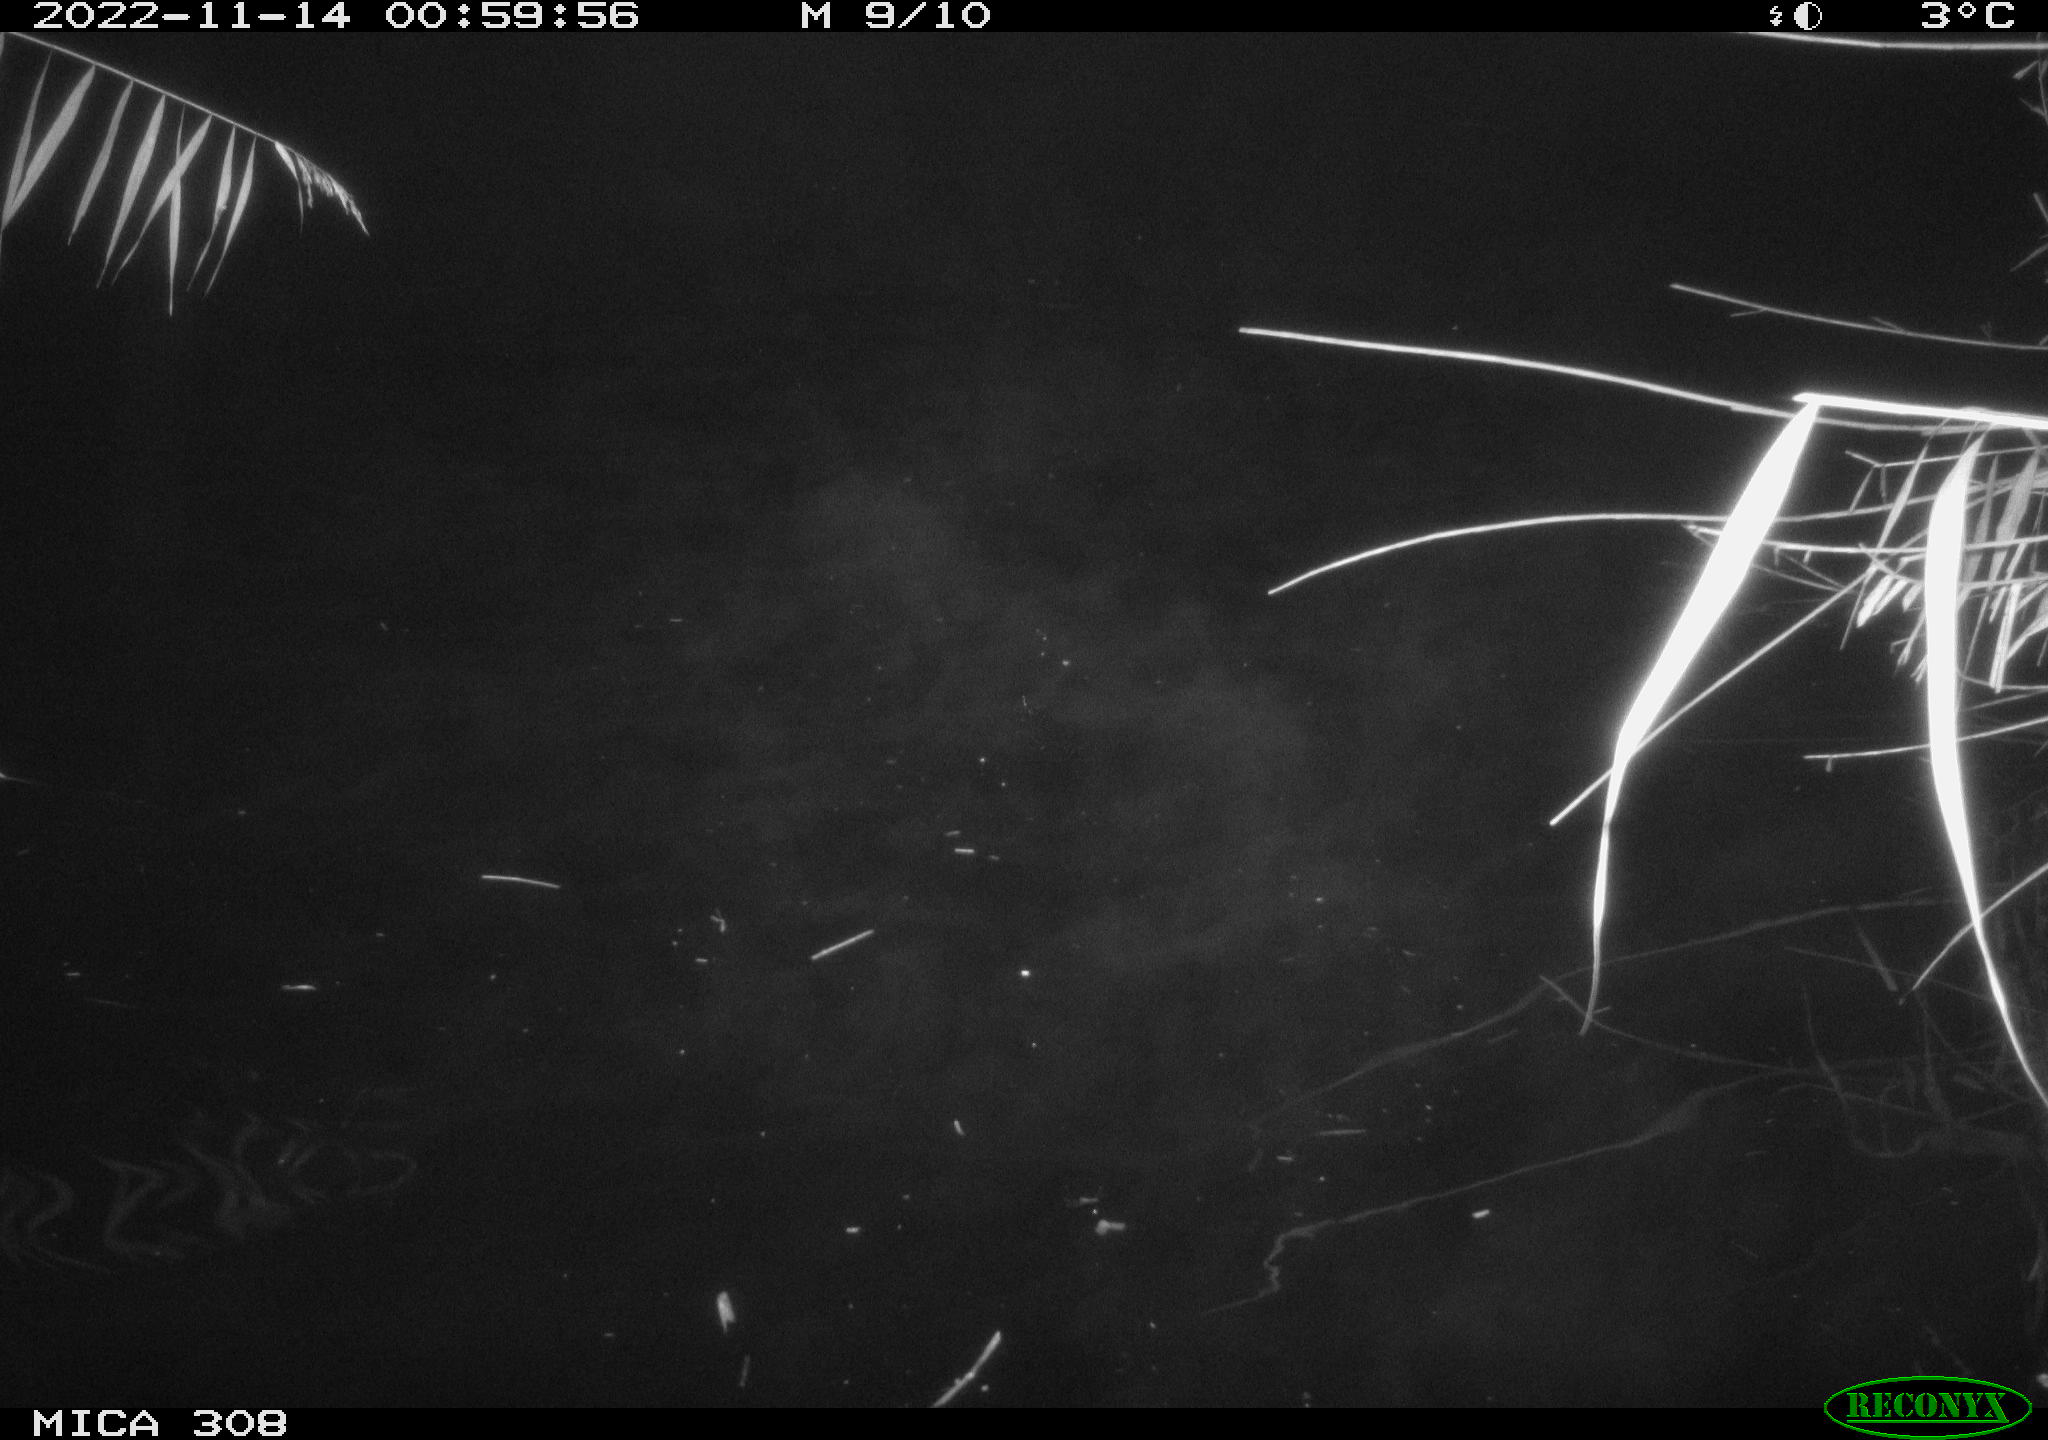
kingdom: Animalia
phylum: Chordata
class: Mammalia
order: Rodentia
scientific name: Rodentia
